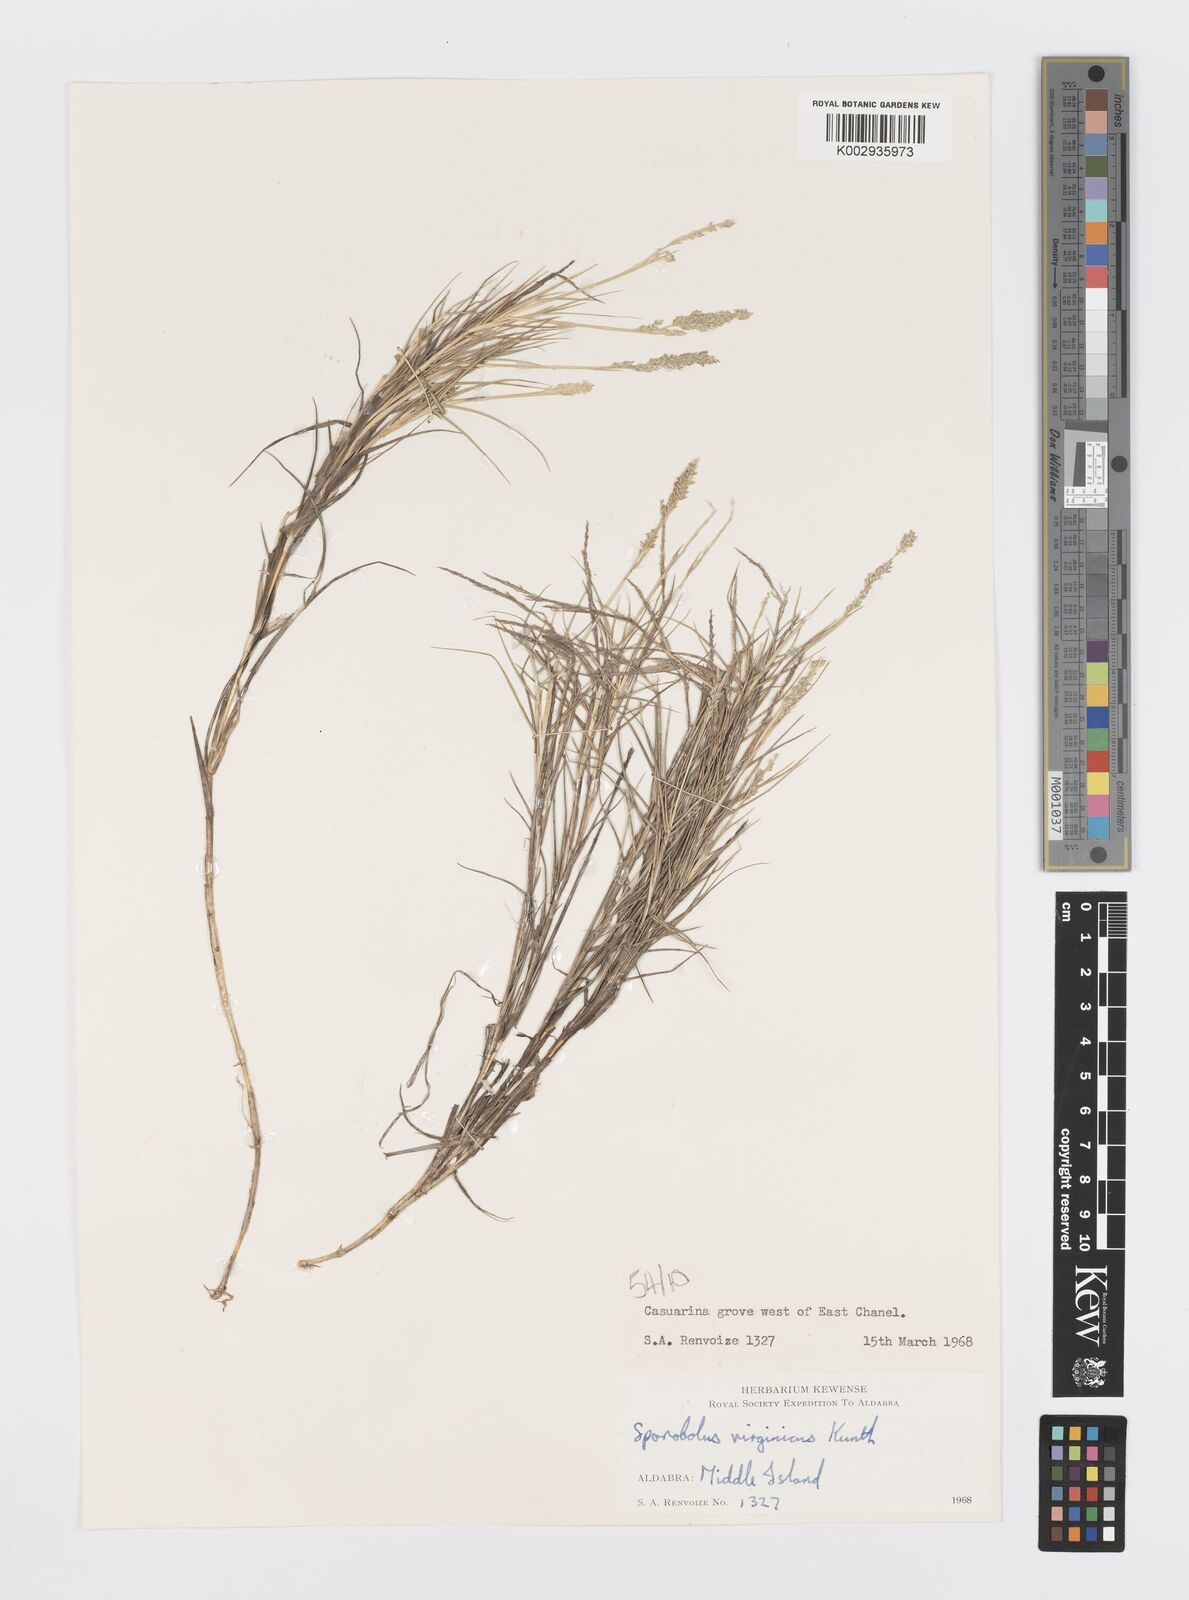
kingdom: Plantae
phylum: Tracheophyta
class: Liliopsida
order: Poales
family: Poaceae
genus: Sporobolus
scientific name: Sporobolus virginicus
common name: Beach dropseed
